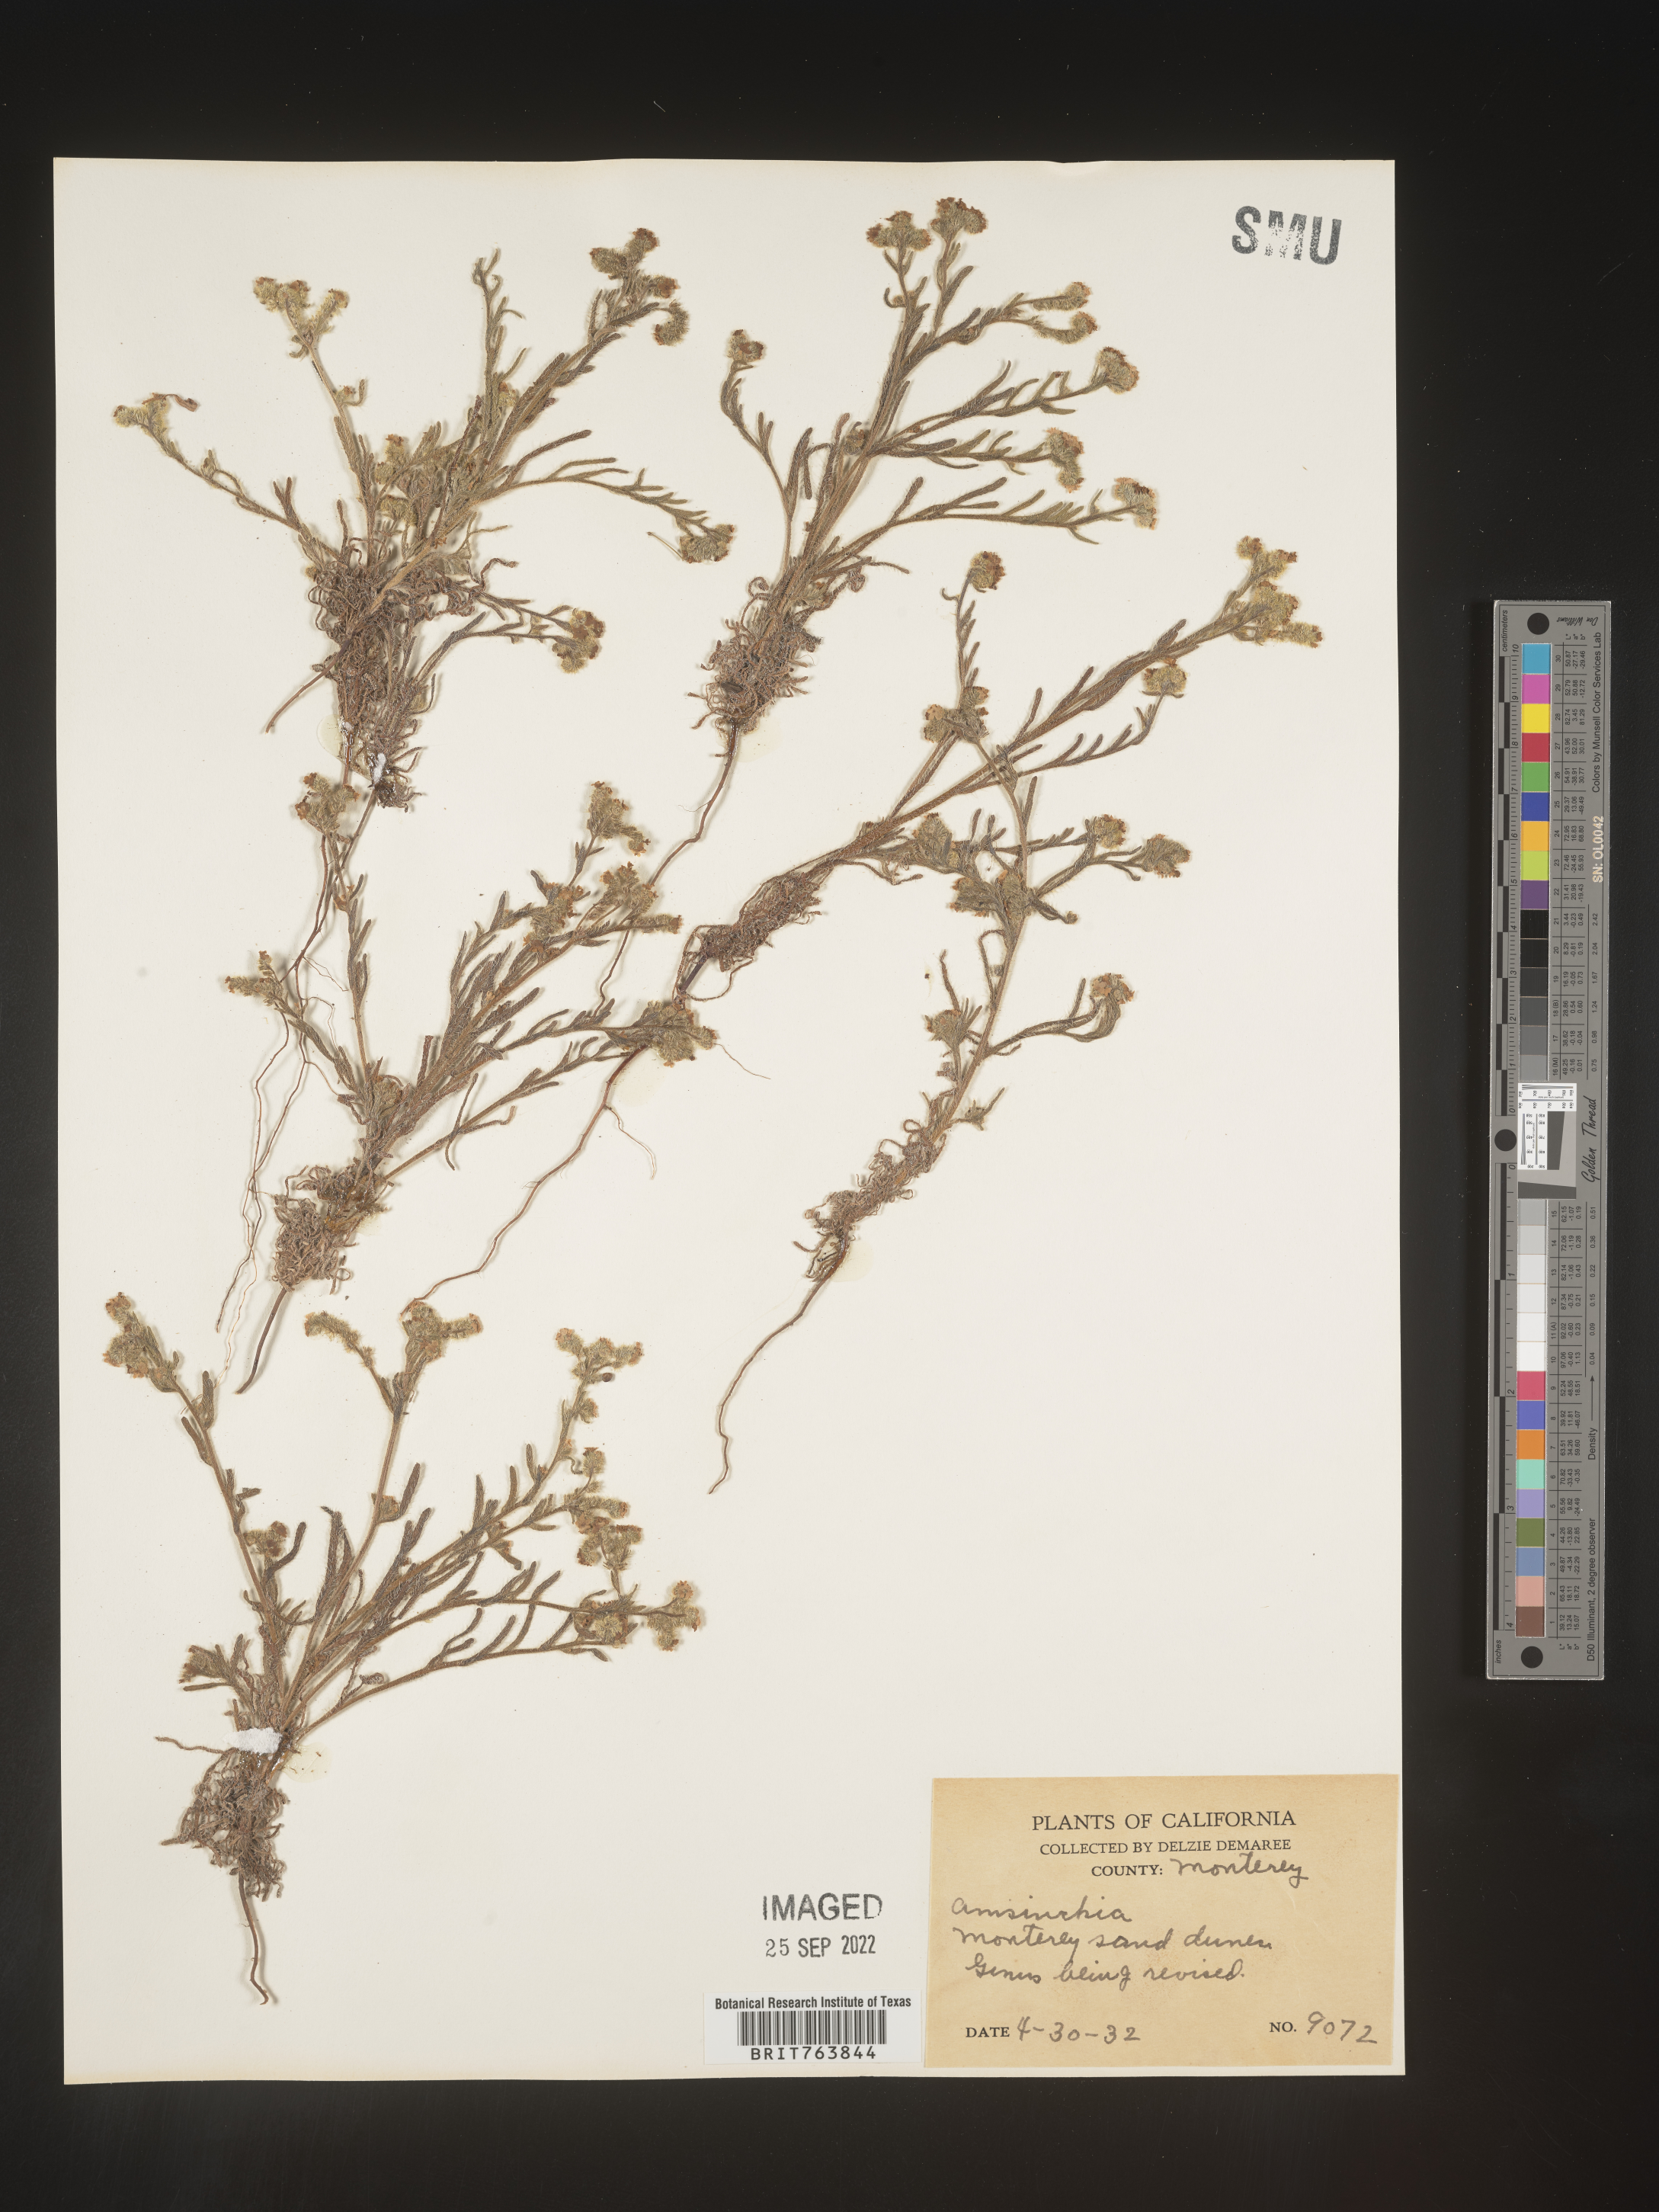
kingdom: Plantae
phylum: Tracheophyta
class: Magnoliopsida
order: Boraginales
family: Boraginaceae
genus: Amsinckia
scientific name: Amsinckia
